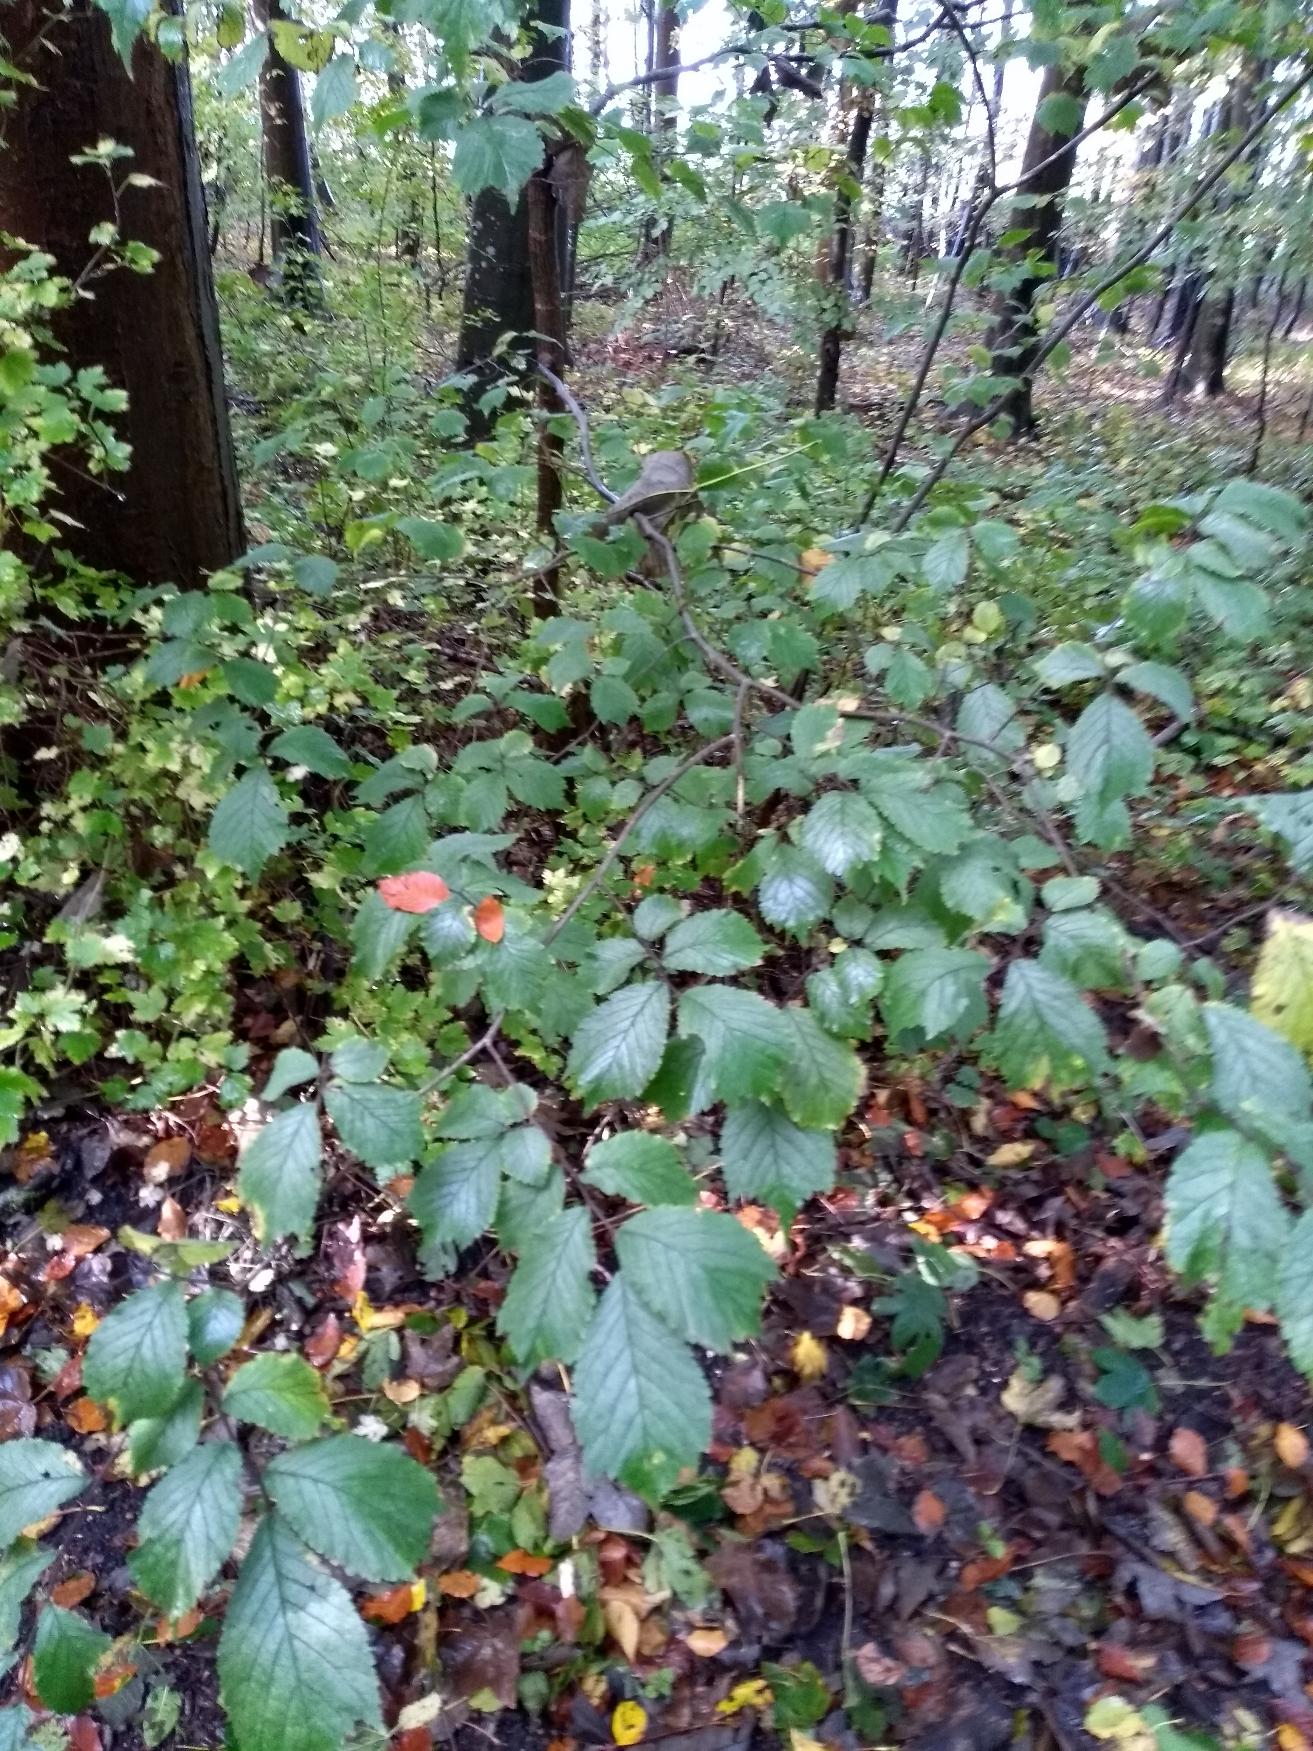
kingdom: Plantae
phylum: Tracheophyta
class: Magnoliopsida
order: Rosales
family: Ulmaceae
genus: Ulmus
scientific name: Ulmus glabra
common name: Skov-elm/storbladet elm
